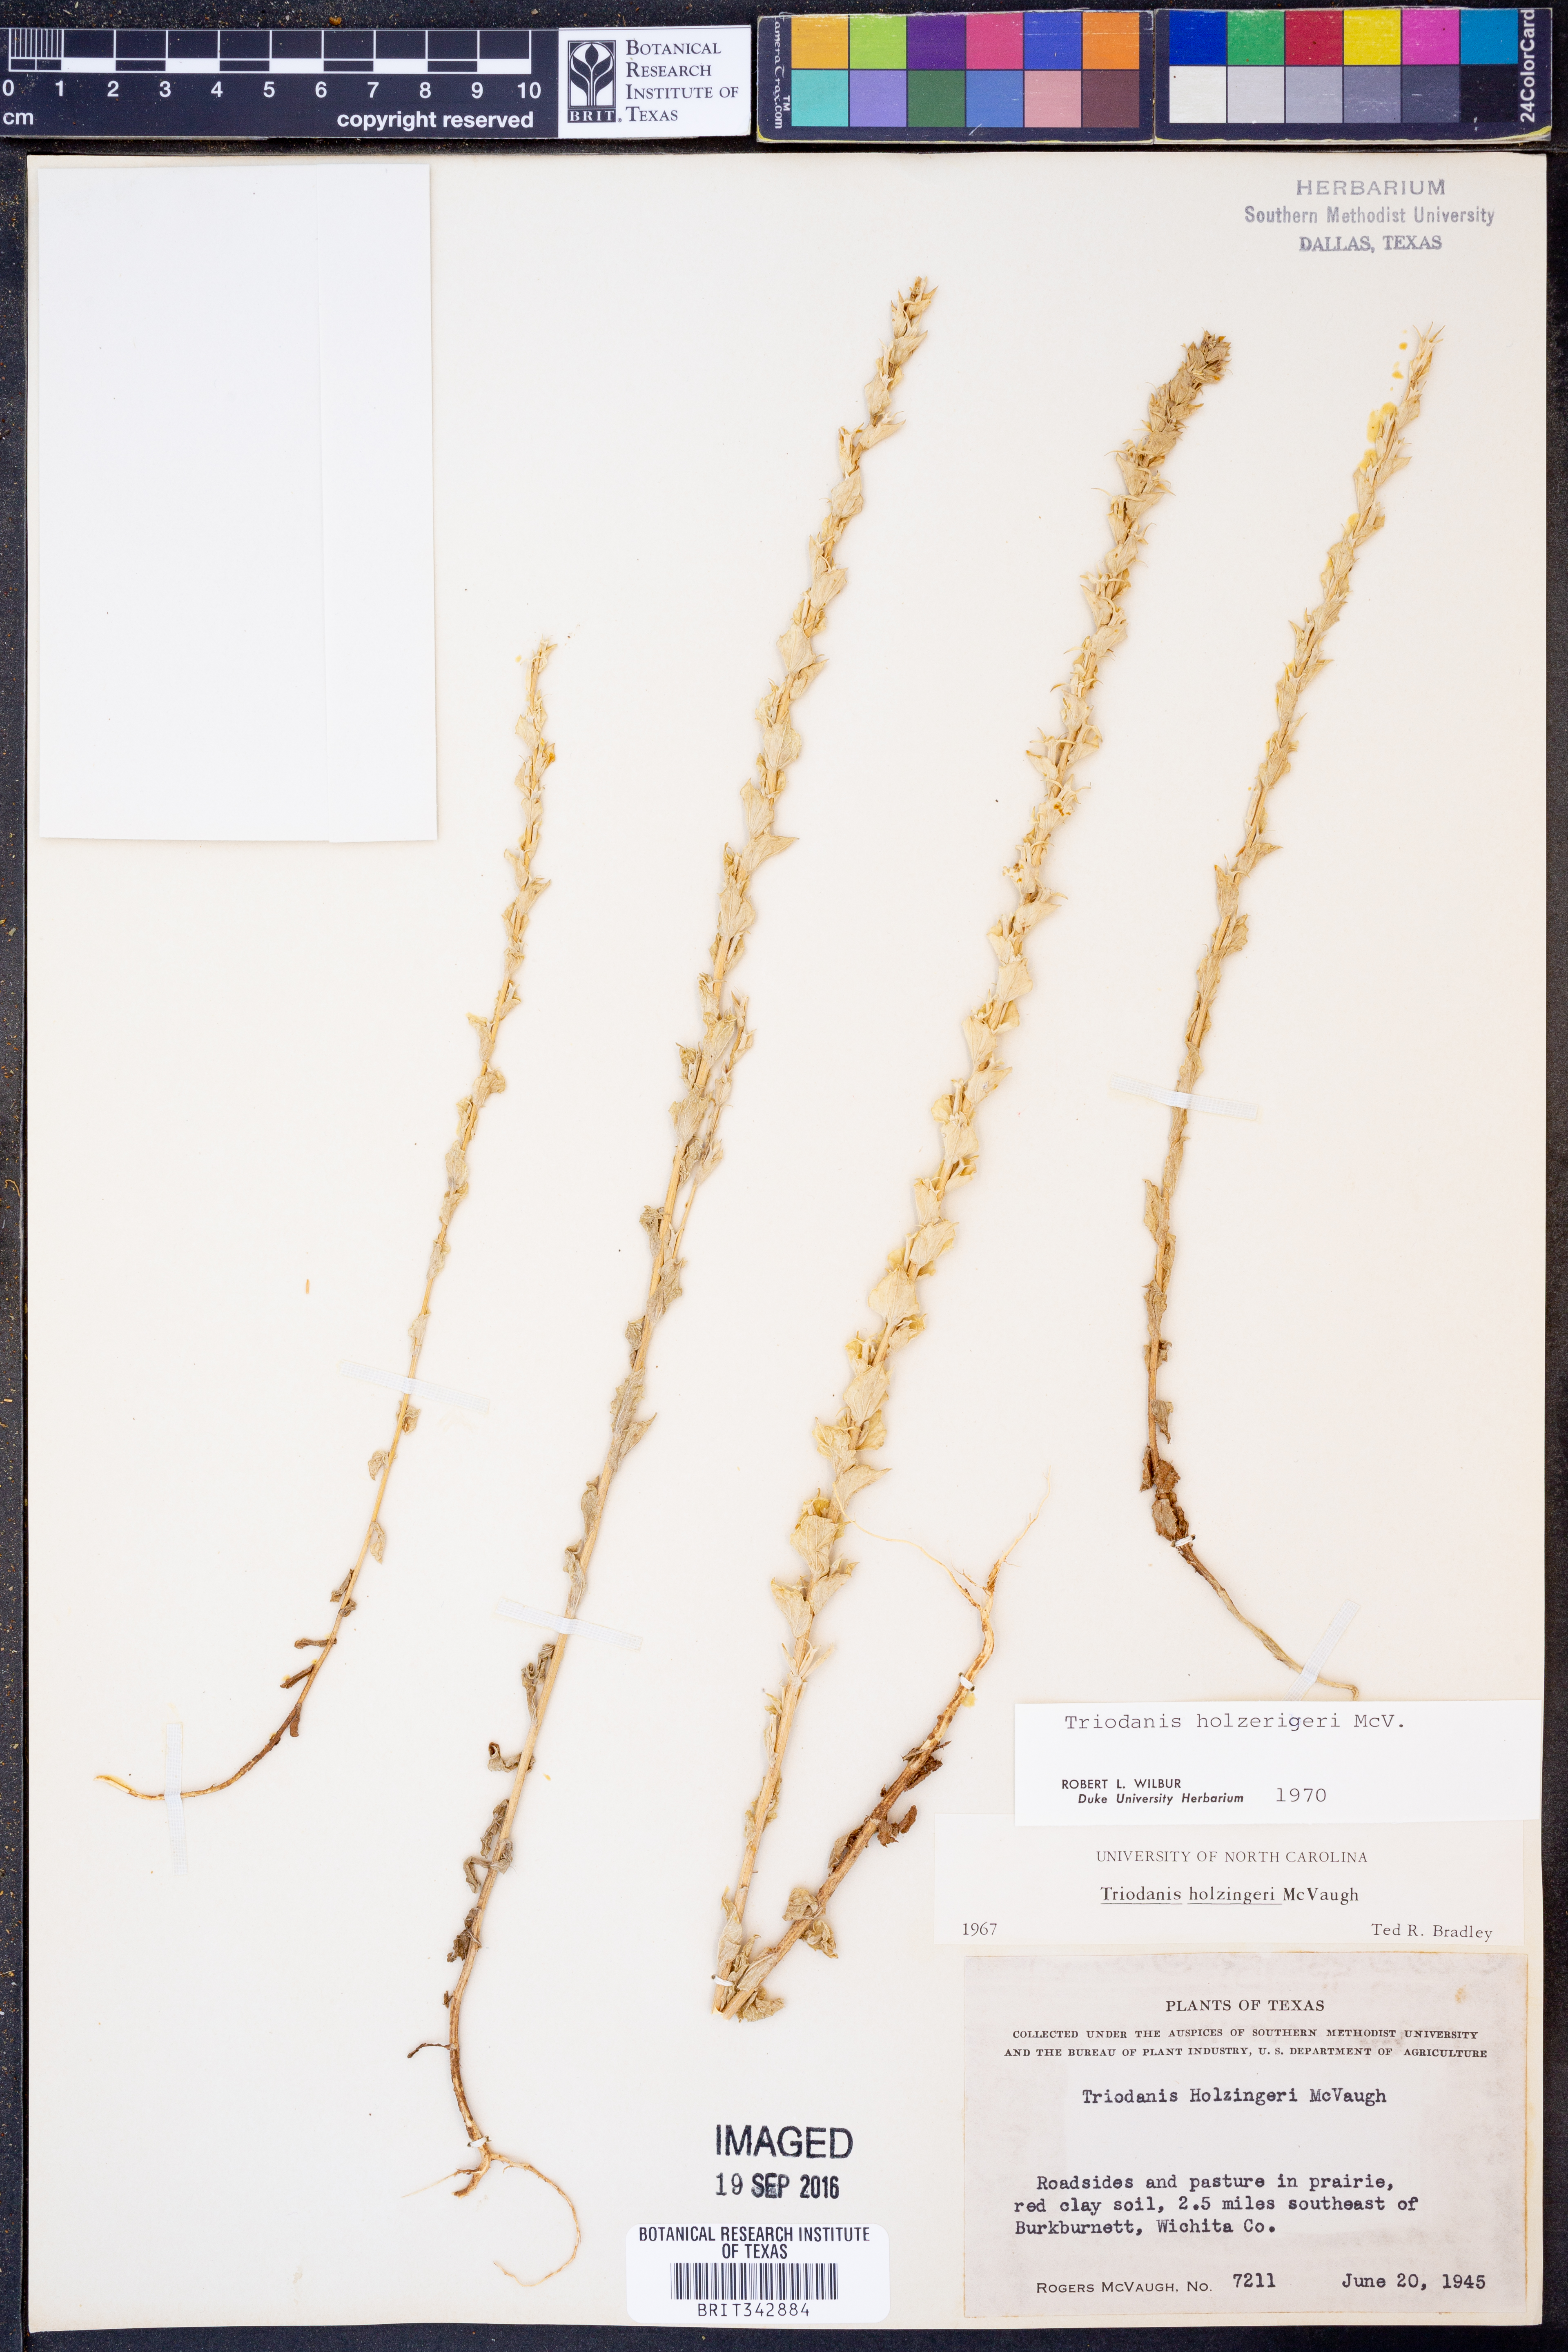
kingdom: Plantae
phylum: Tracheophyta
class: Magnoliopsida
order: Asterales
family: Campanulaceae
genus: Triodanis
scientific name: Triodanis holzingeri
